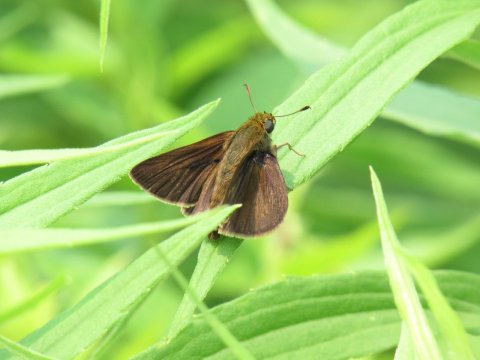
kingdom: Animalia
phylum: Arthropoda
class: Insecta
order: Lepidoptera
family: Hesperiidae
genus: Euphyes
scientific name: Euphyes vestris
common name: Dun Skipper
